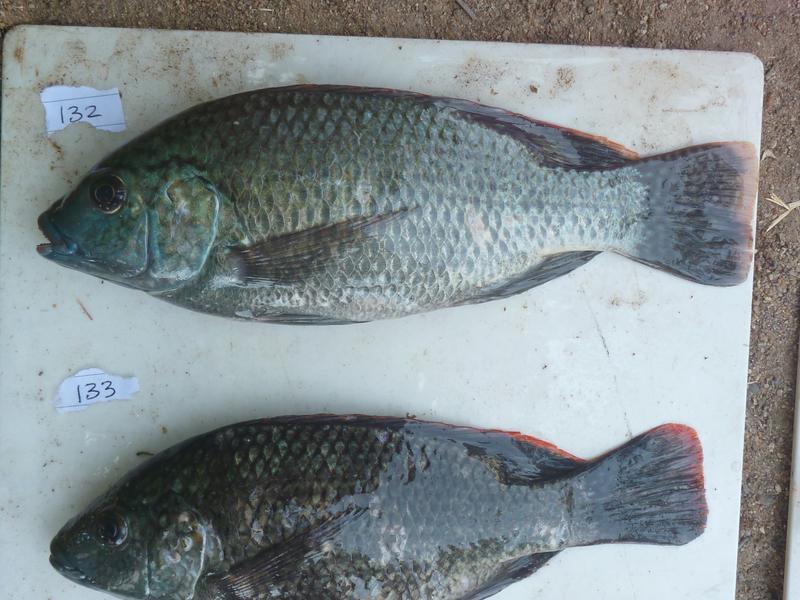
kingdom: Animalia
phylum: Chordata
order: Perciformes
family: Cichlidae
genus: Oreochromis
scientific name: Oreochromis
